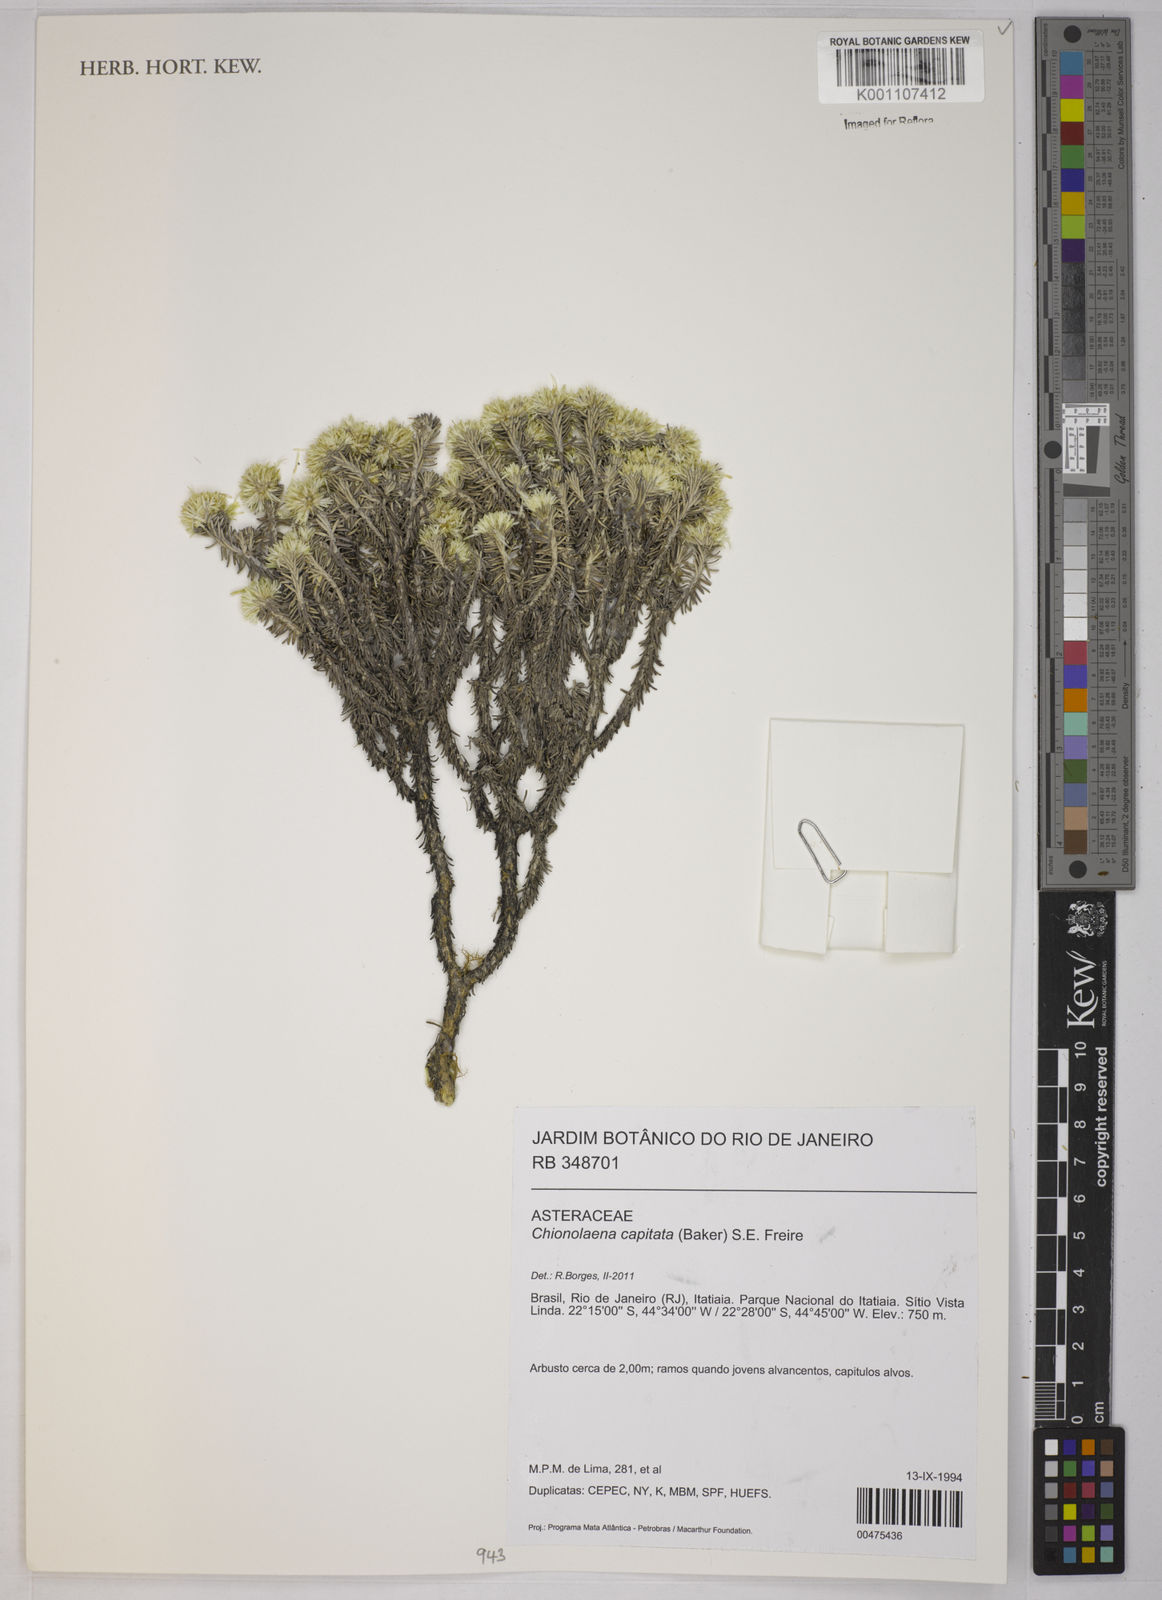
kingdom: Plantae
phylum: Tracheophyta
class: Magnoliopsida
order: Asterales
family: Asteraceae
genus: Chionolaena
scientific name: Chionolaena capitata
